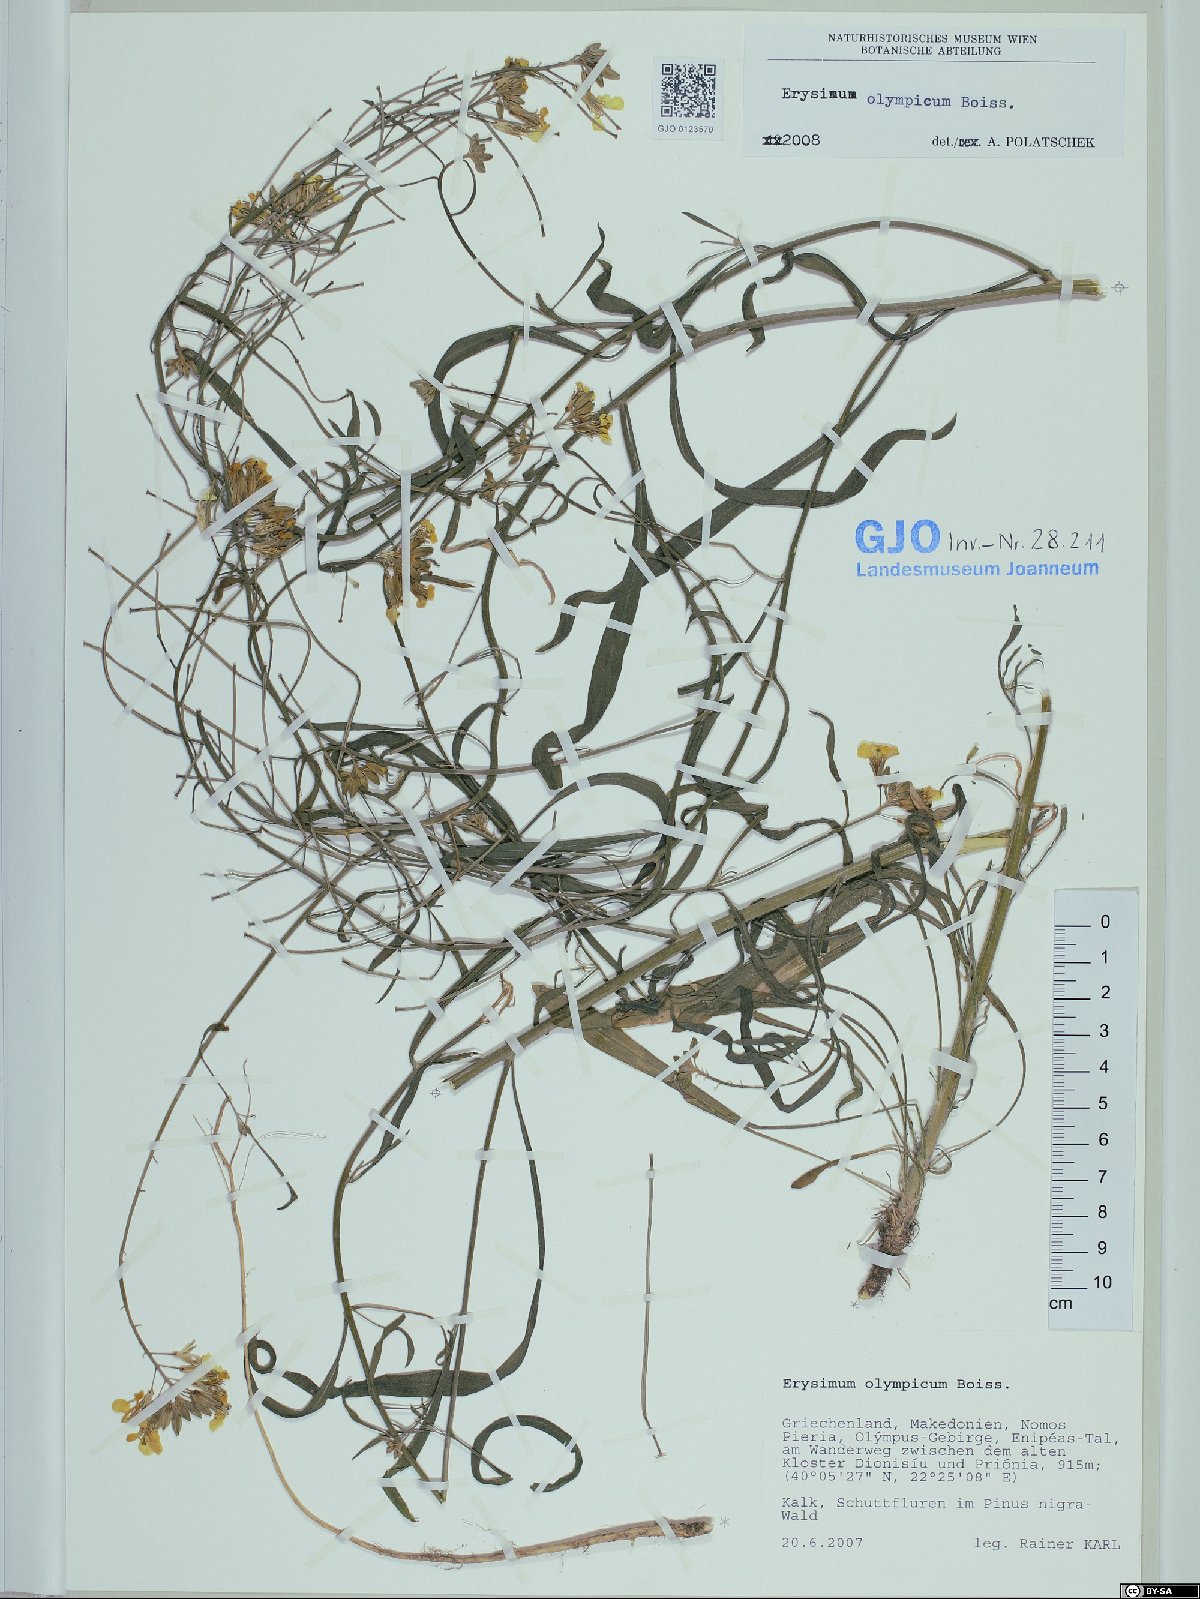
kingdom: Plantae
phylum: Tracheophyta
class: Magnoliopsida
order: Brassicales
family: Brassicaceae
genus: Erysimum
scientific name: Erysimum olympicum
